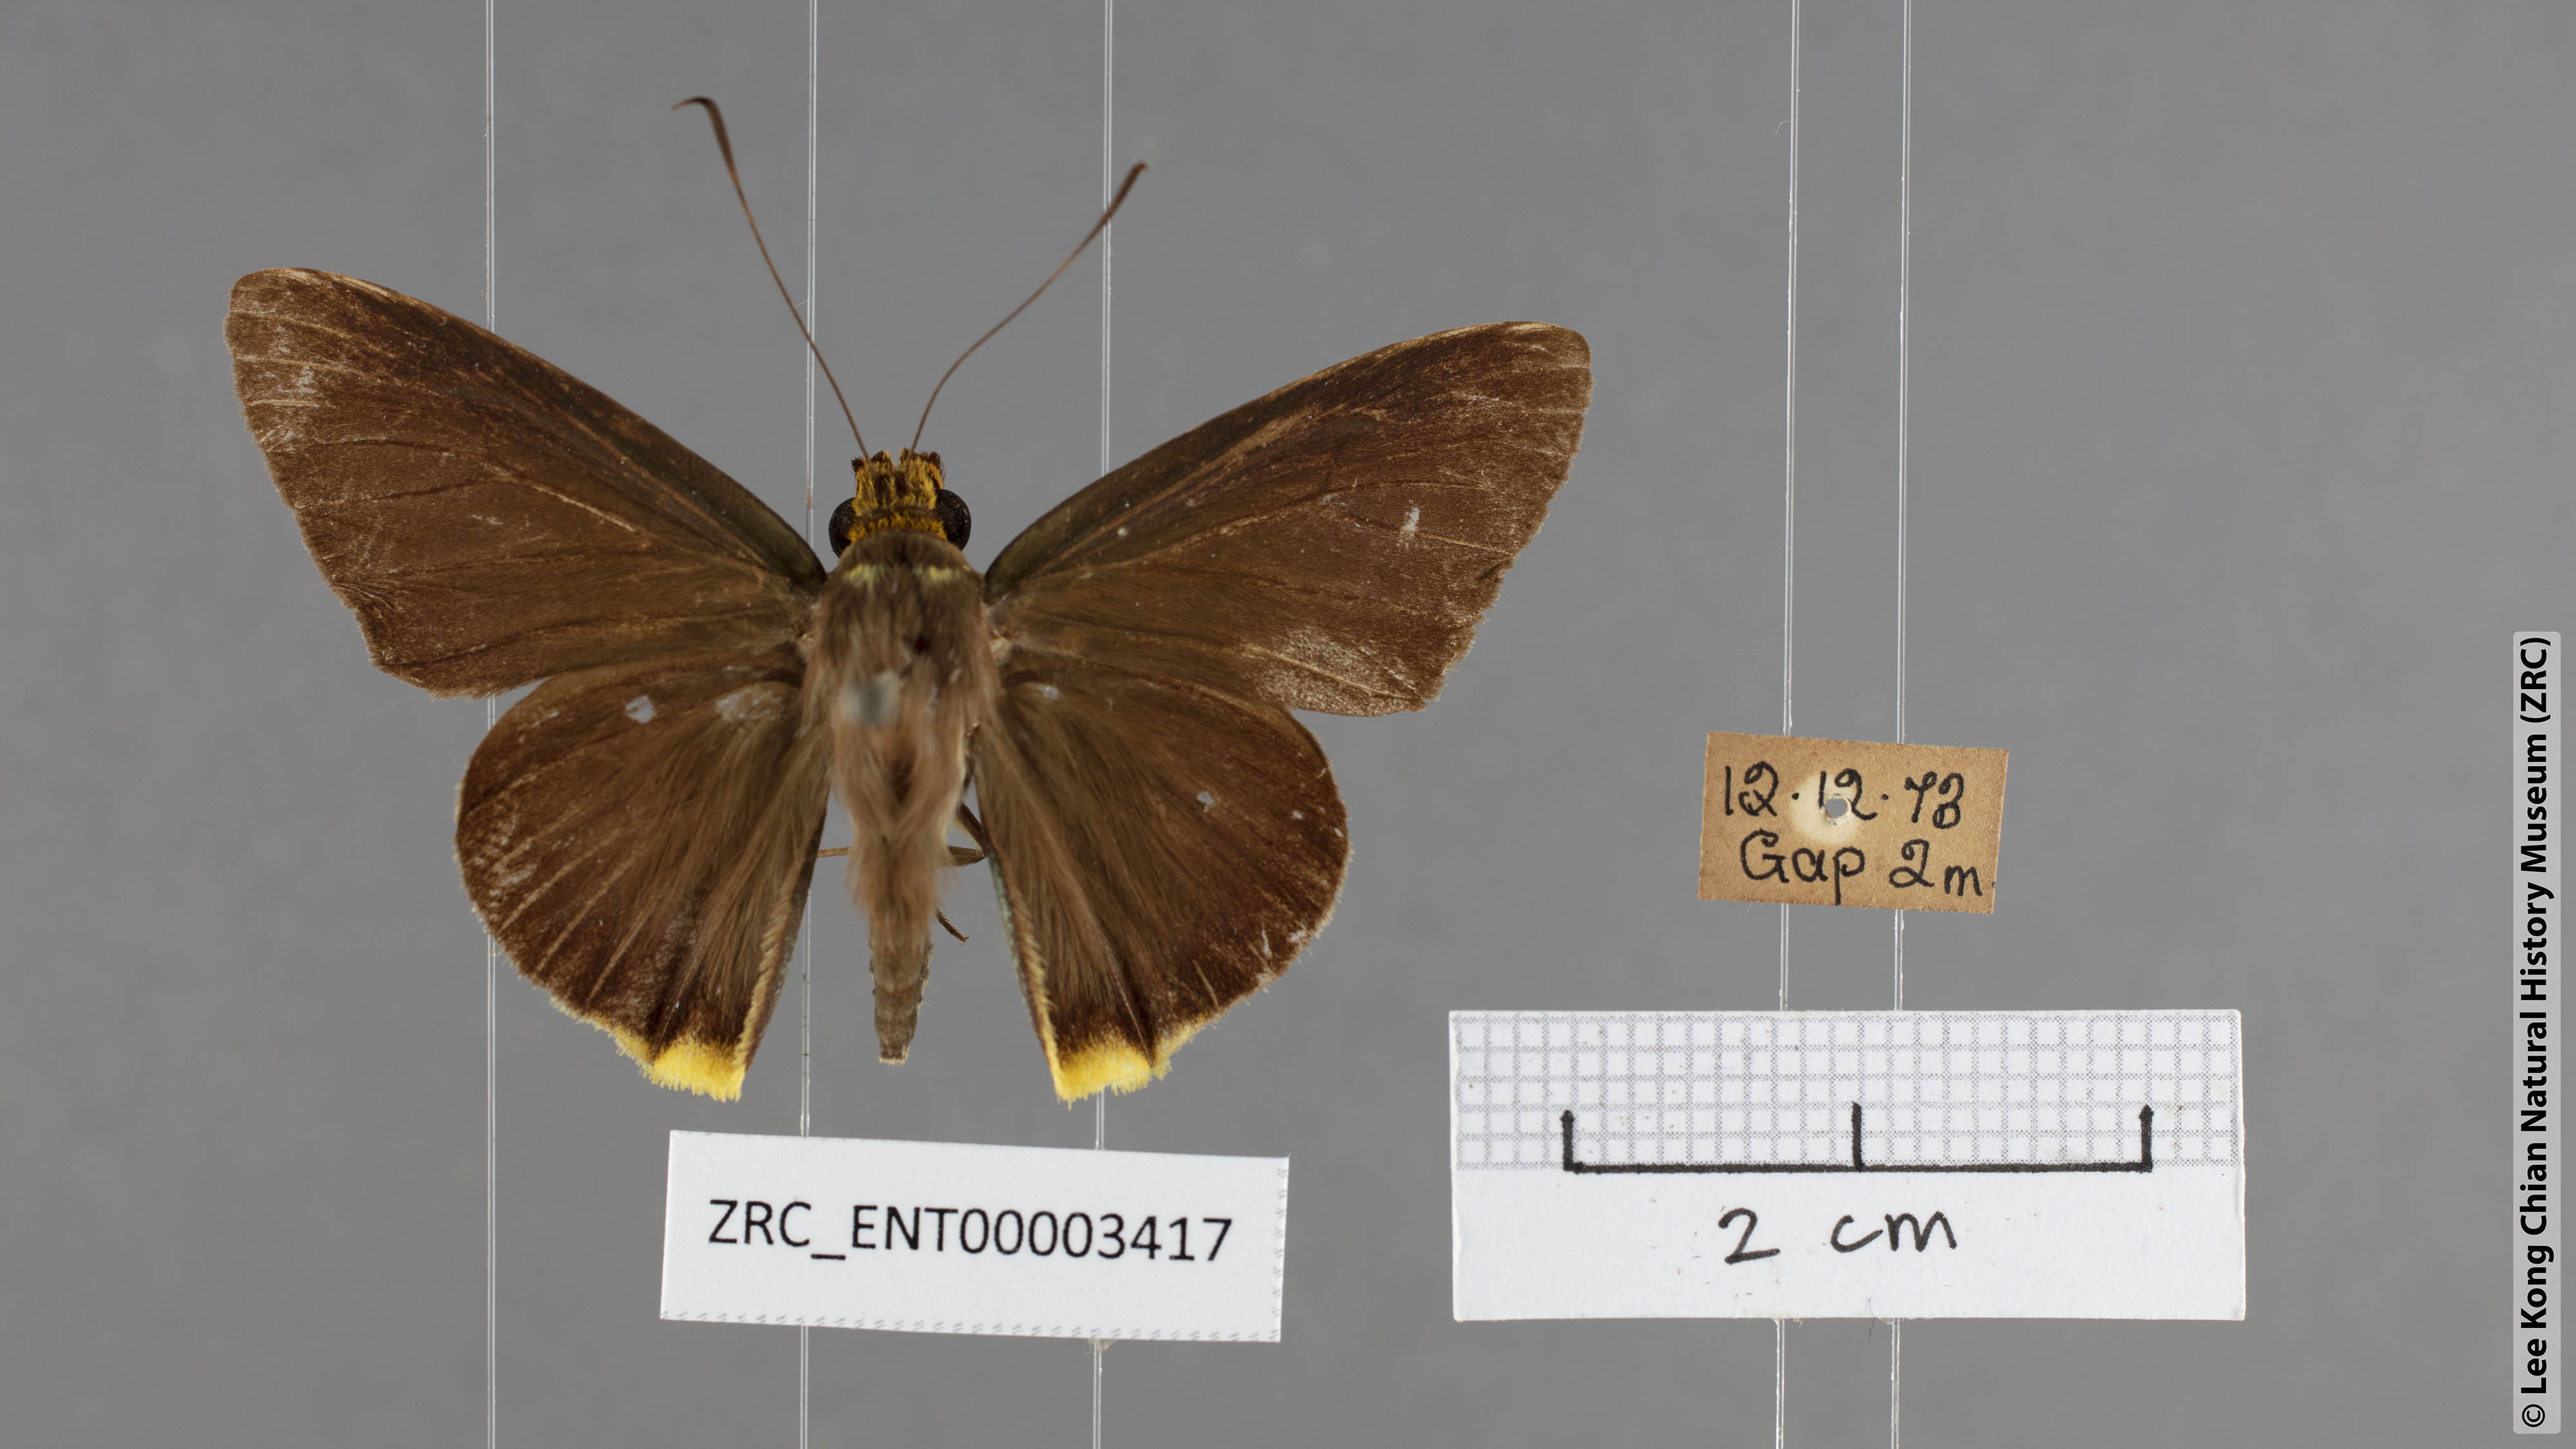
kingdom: Animalia
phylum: Arthropoda
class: Insecta
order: Lepidoptera
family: Hesperiidae
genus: Pirdana
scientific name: Pirdana hyela
